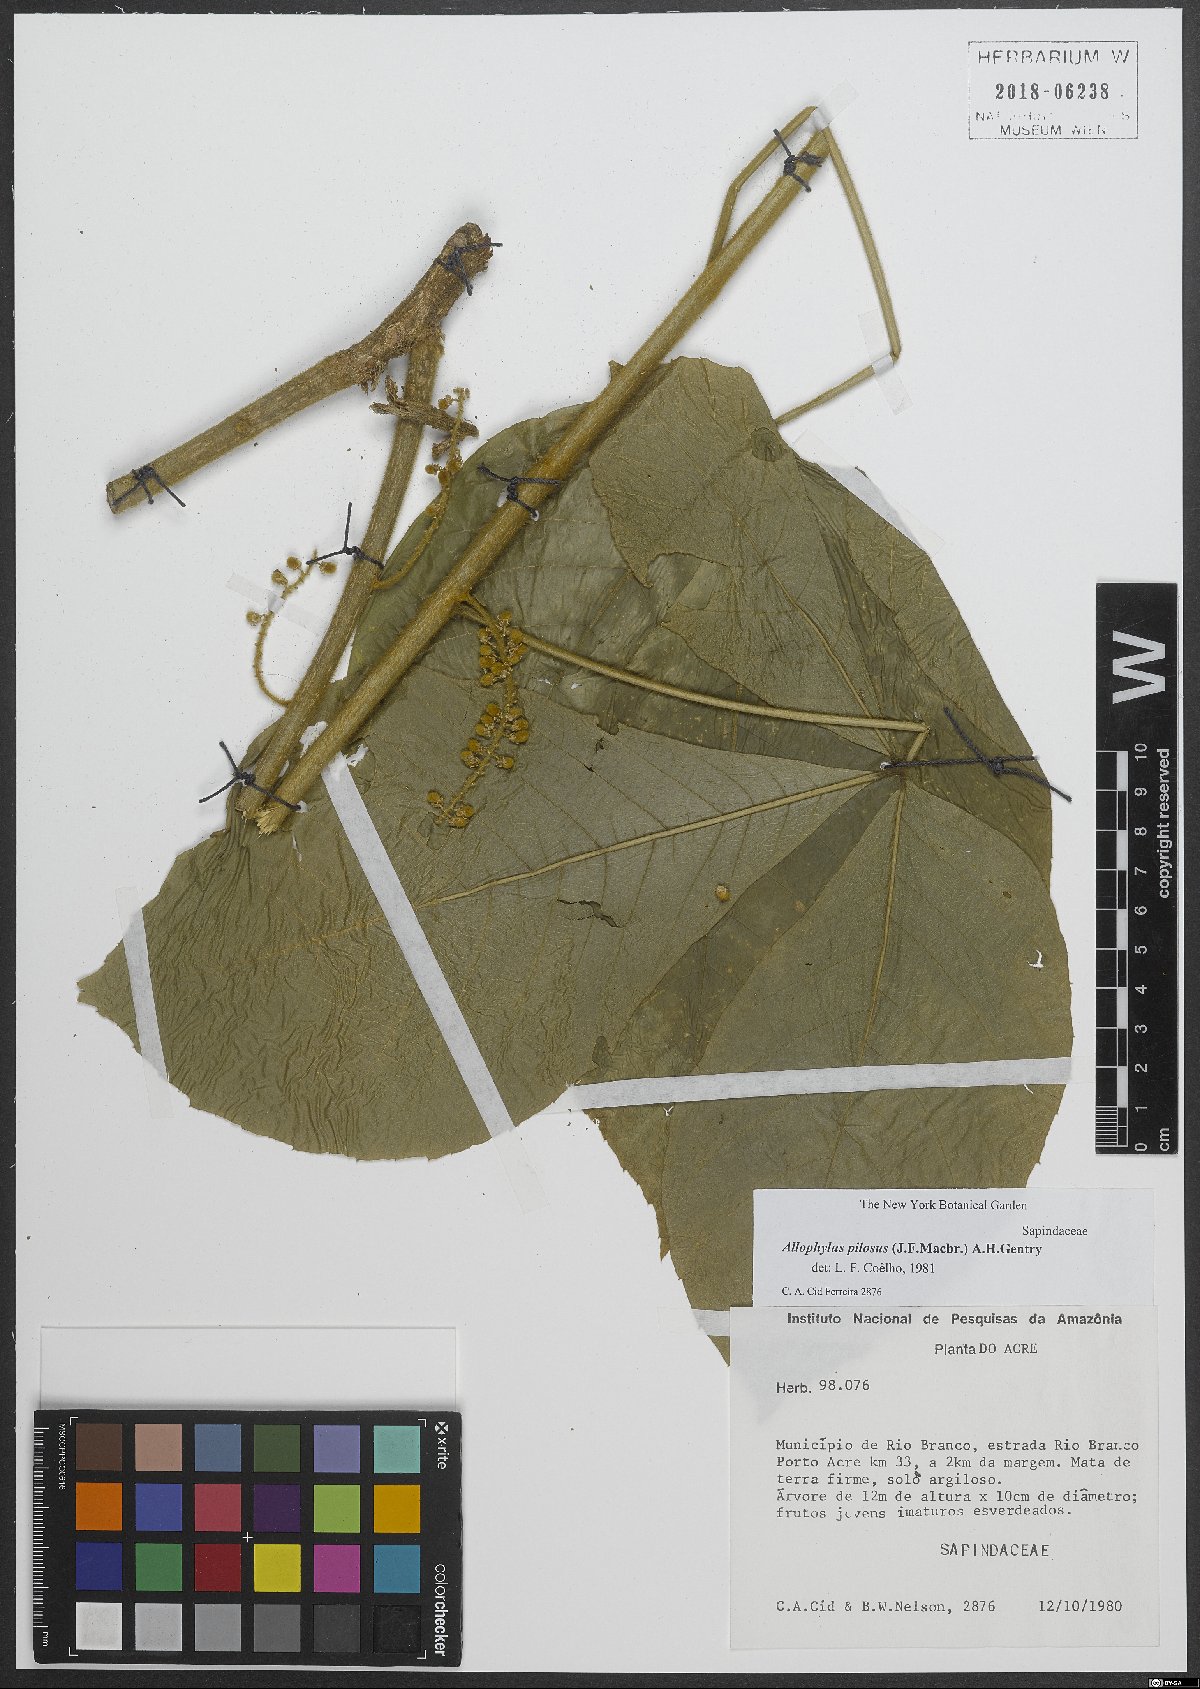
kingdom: Plantae
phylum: Tracheophyta
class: Magnoliopsida
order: Sapindales
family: Sapindaceae
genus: Allophylus
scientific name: Allophylus pilosus
